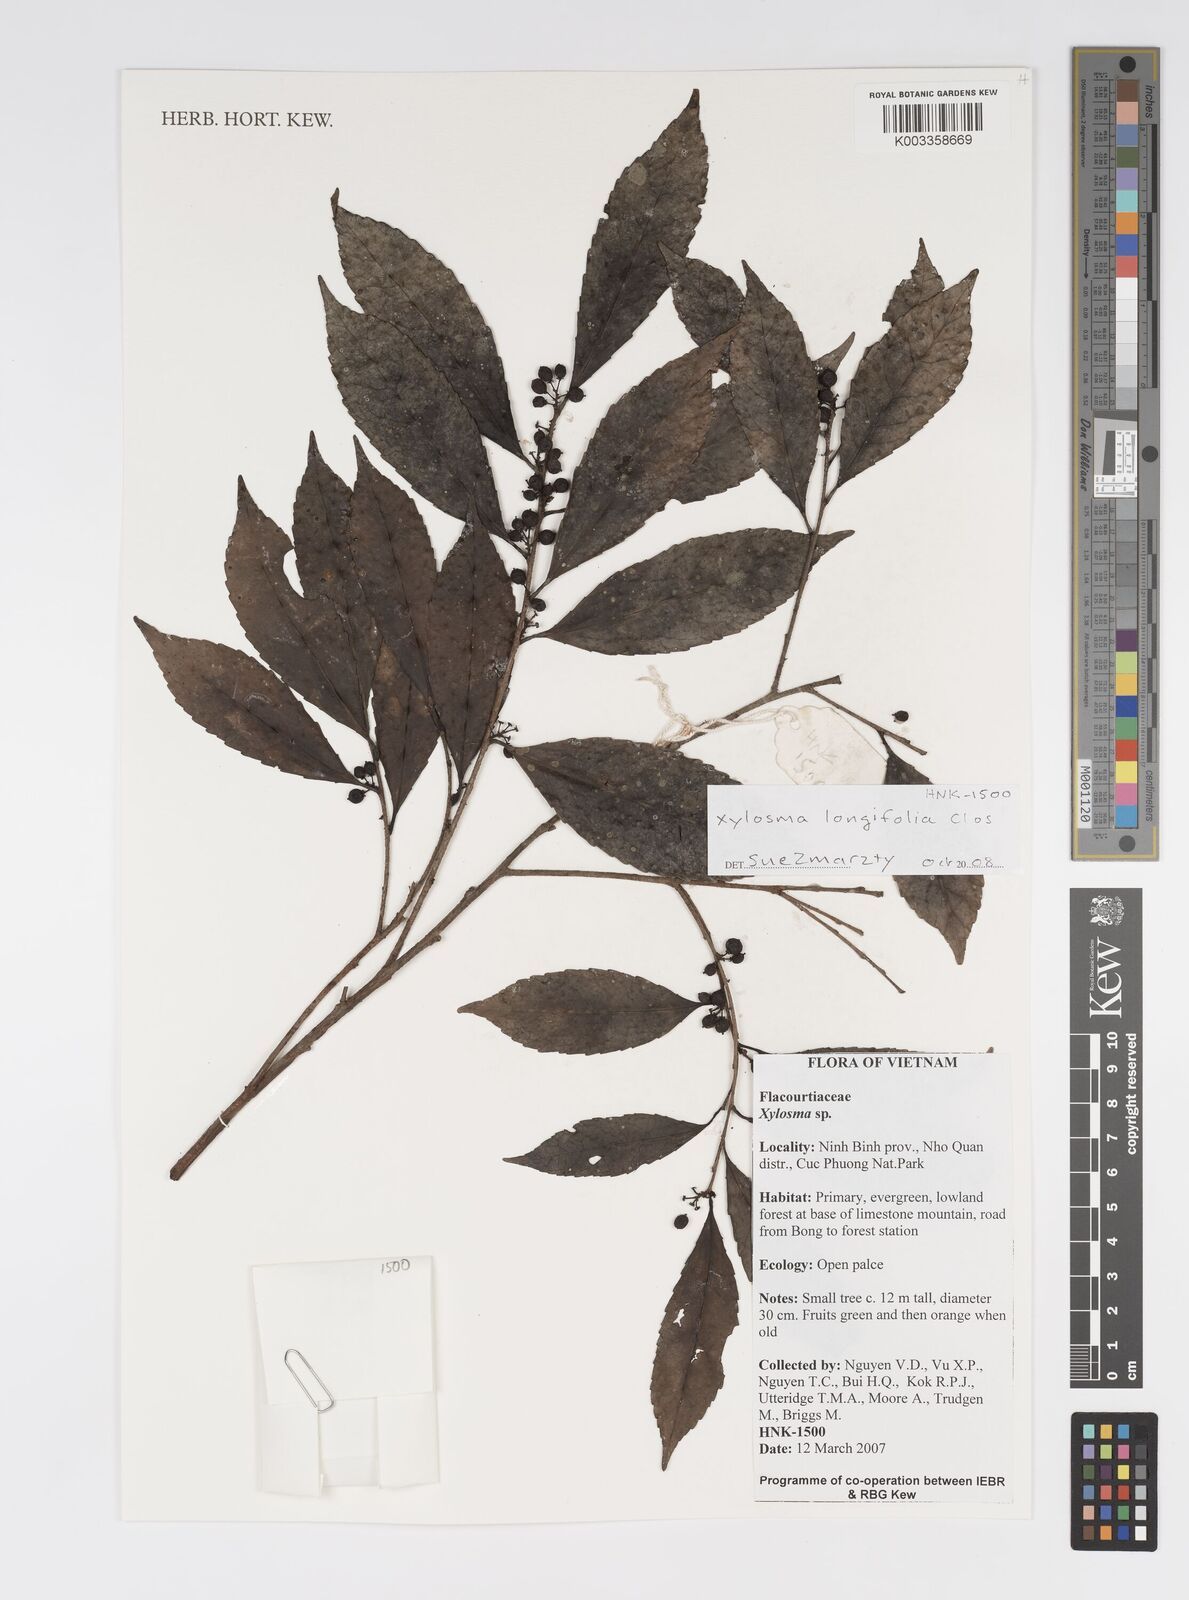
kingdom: Plantae
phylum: Tracheophyta
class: Magnoliopsida
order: Malpighiales
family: Salicaceae
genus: Xylosma
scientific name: Xylosma longifolia
